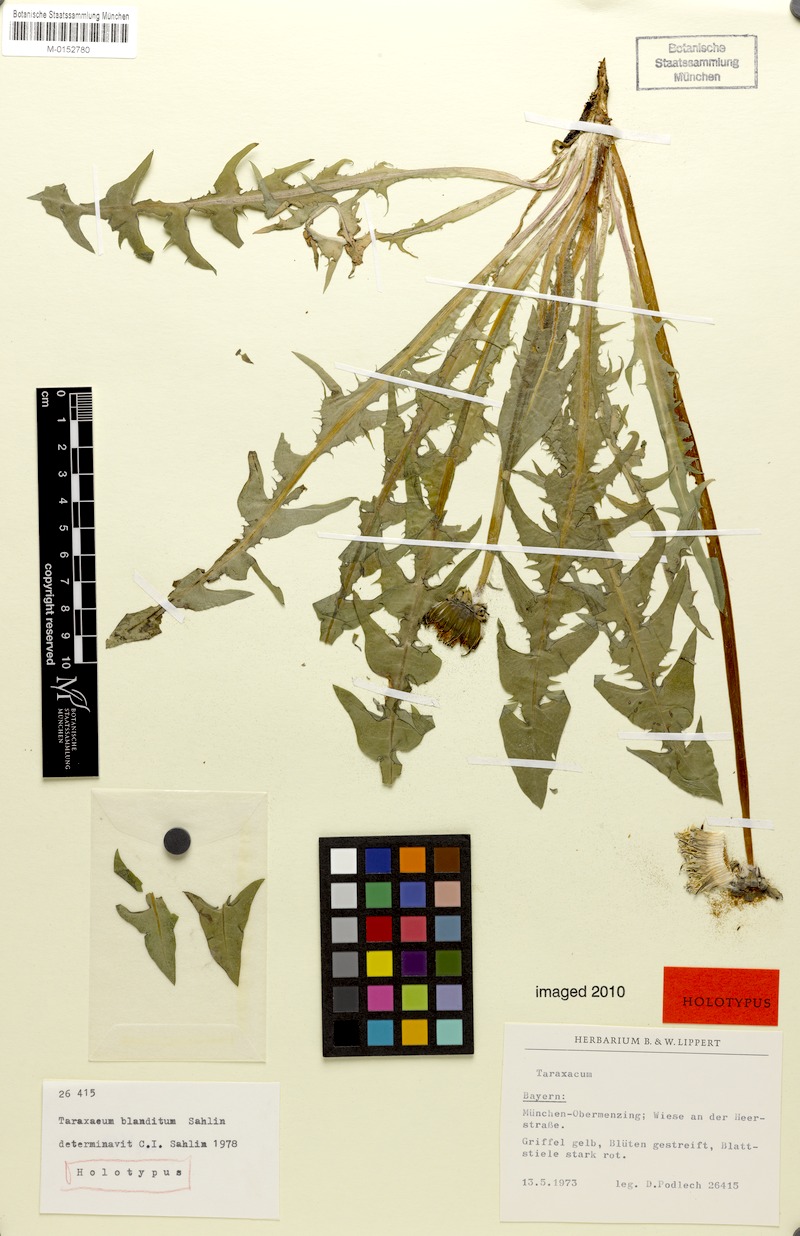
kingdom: Plantae
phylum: Tracheophyta
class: Magnoliopsida
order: Asterales
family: Asteraceae
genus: Taraxacum
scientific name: Taraxacum blanditum
